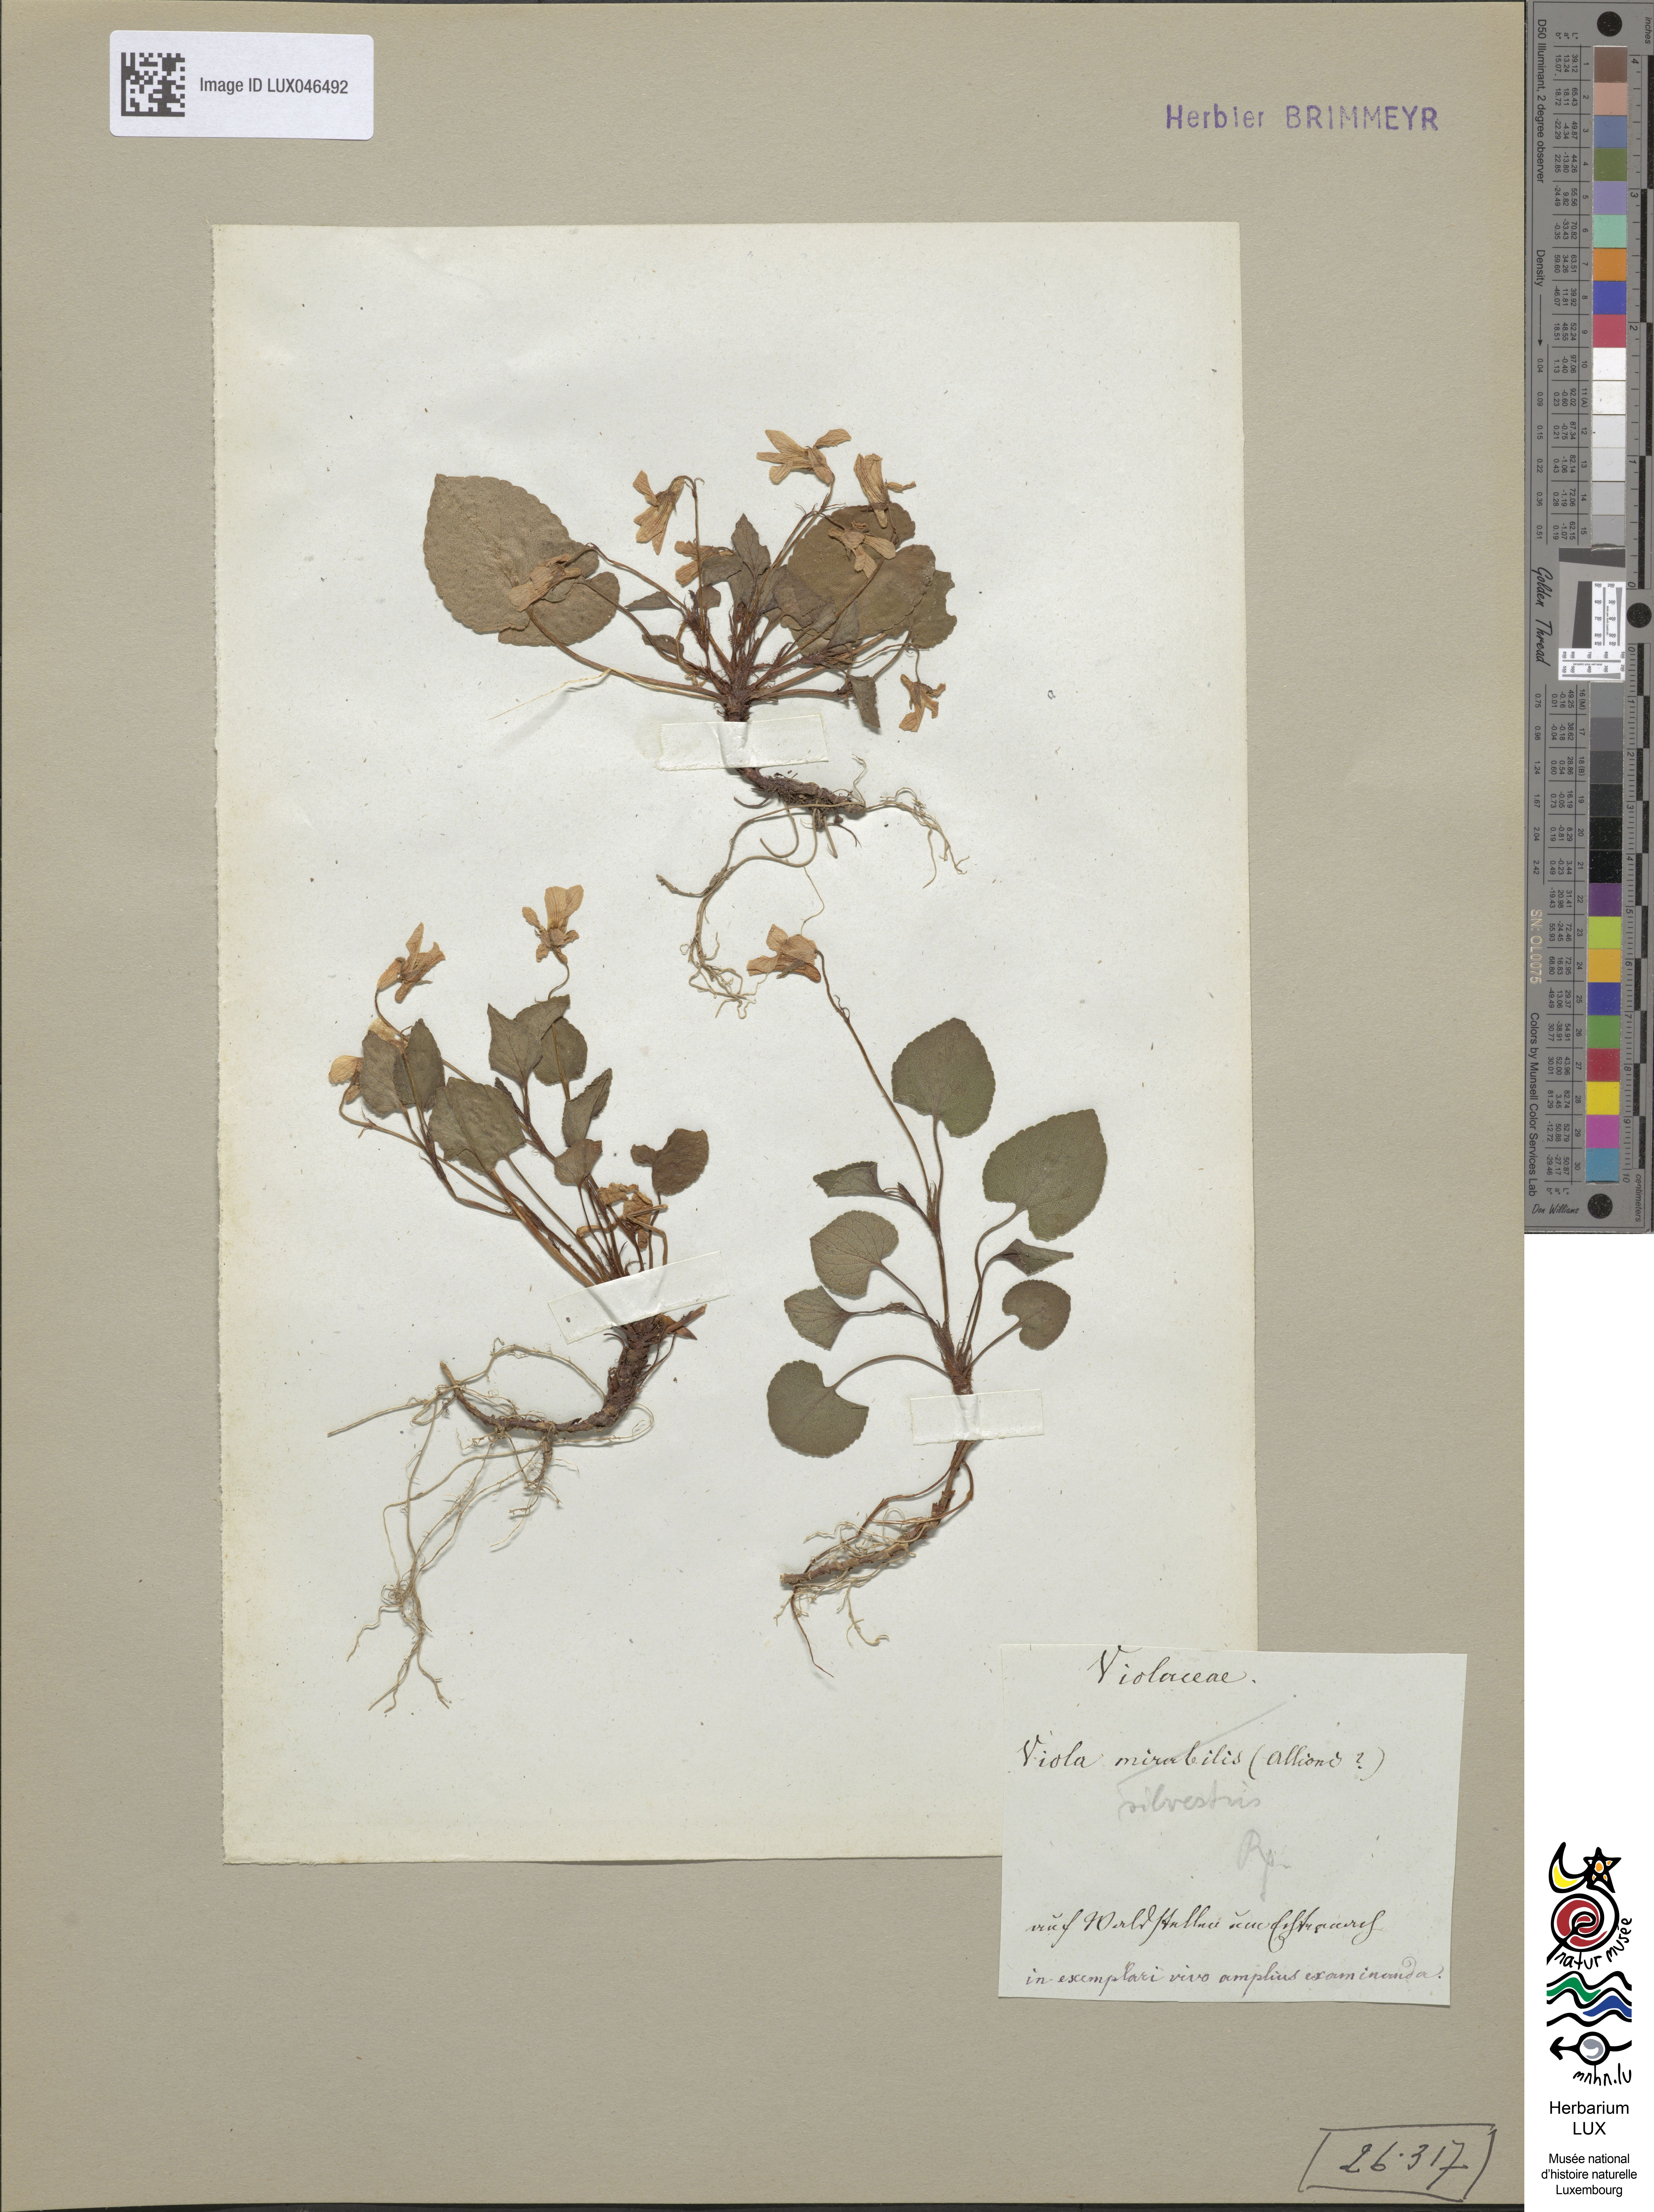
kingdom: Plantae
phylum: Tracheophyta
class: Magnoliopsida
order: Malpighiales
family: Violaceae
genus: Viola
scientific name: Viola reichenbachiana
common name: Early dog-violet
